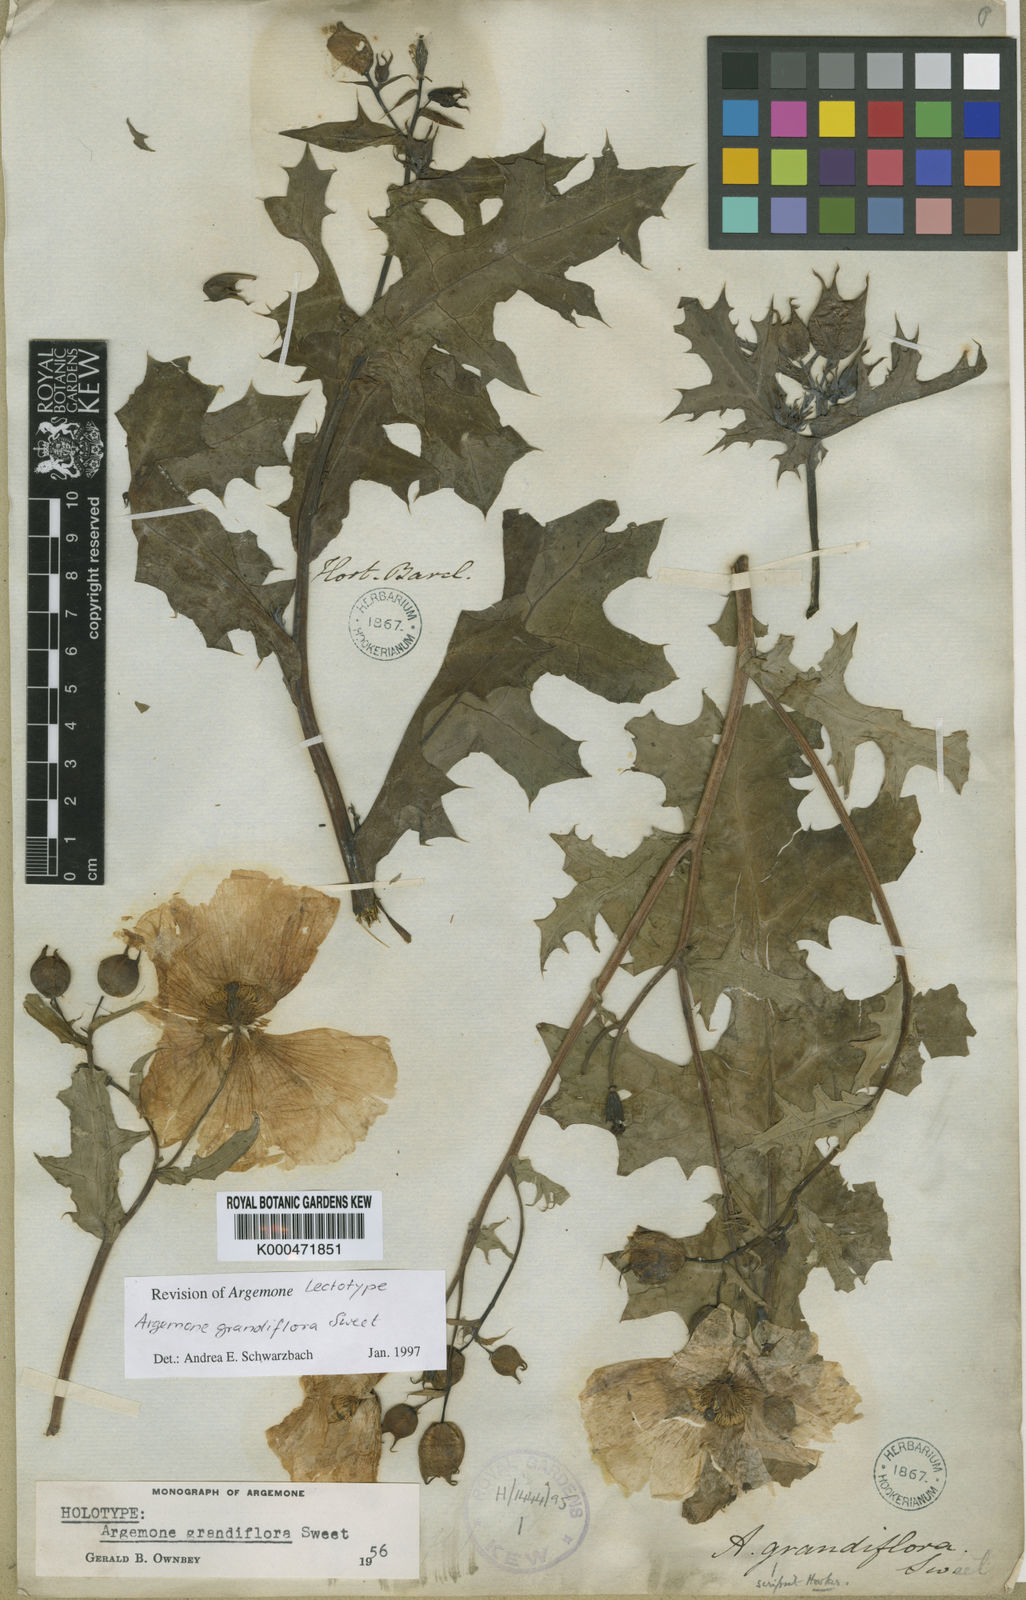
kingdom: Plantae
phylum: Tracheophyta
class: Magnoliopsida
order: Ranunculales
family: Papaveraceae
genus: Argemone
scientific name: Argemone grandiflora
